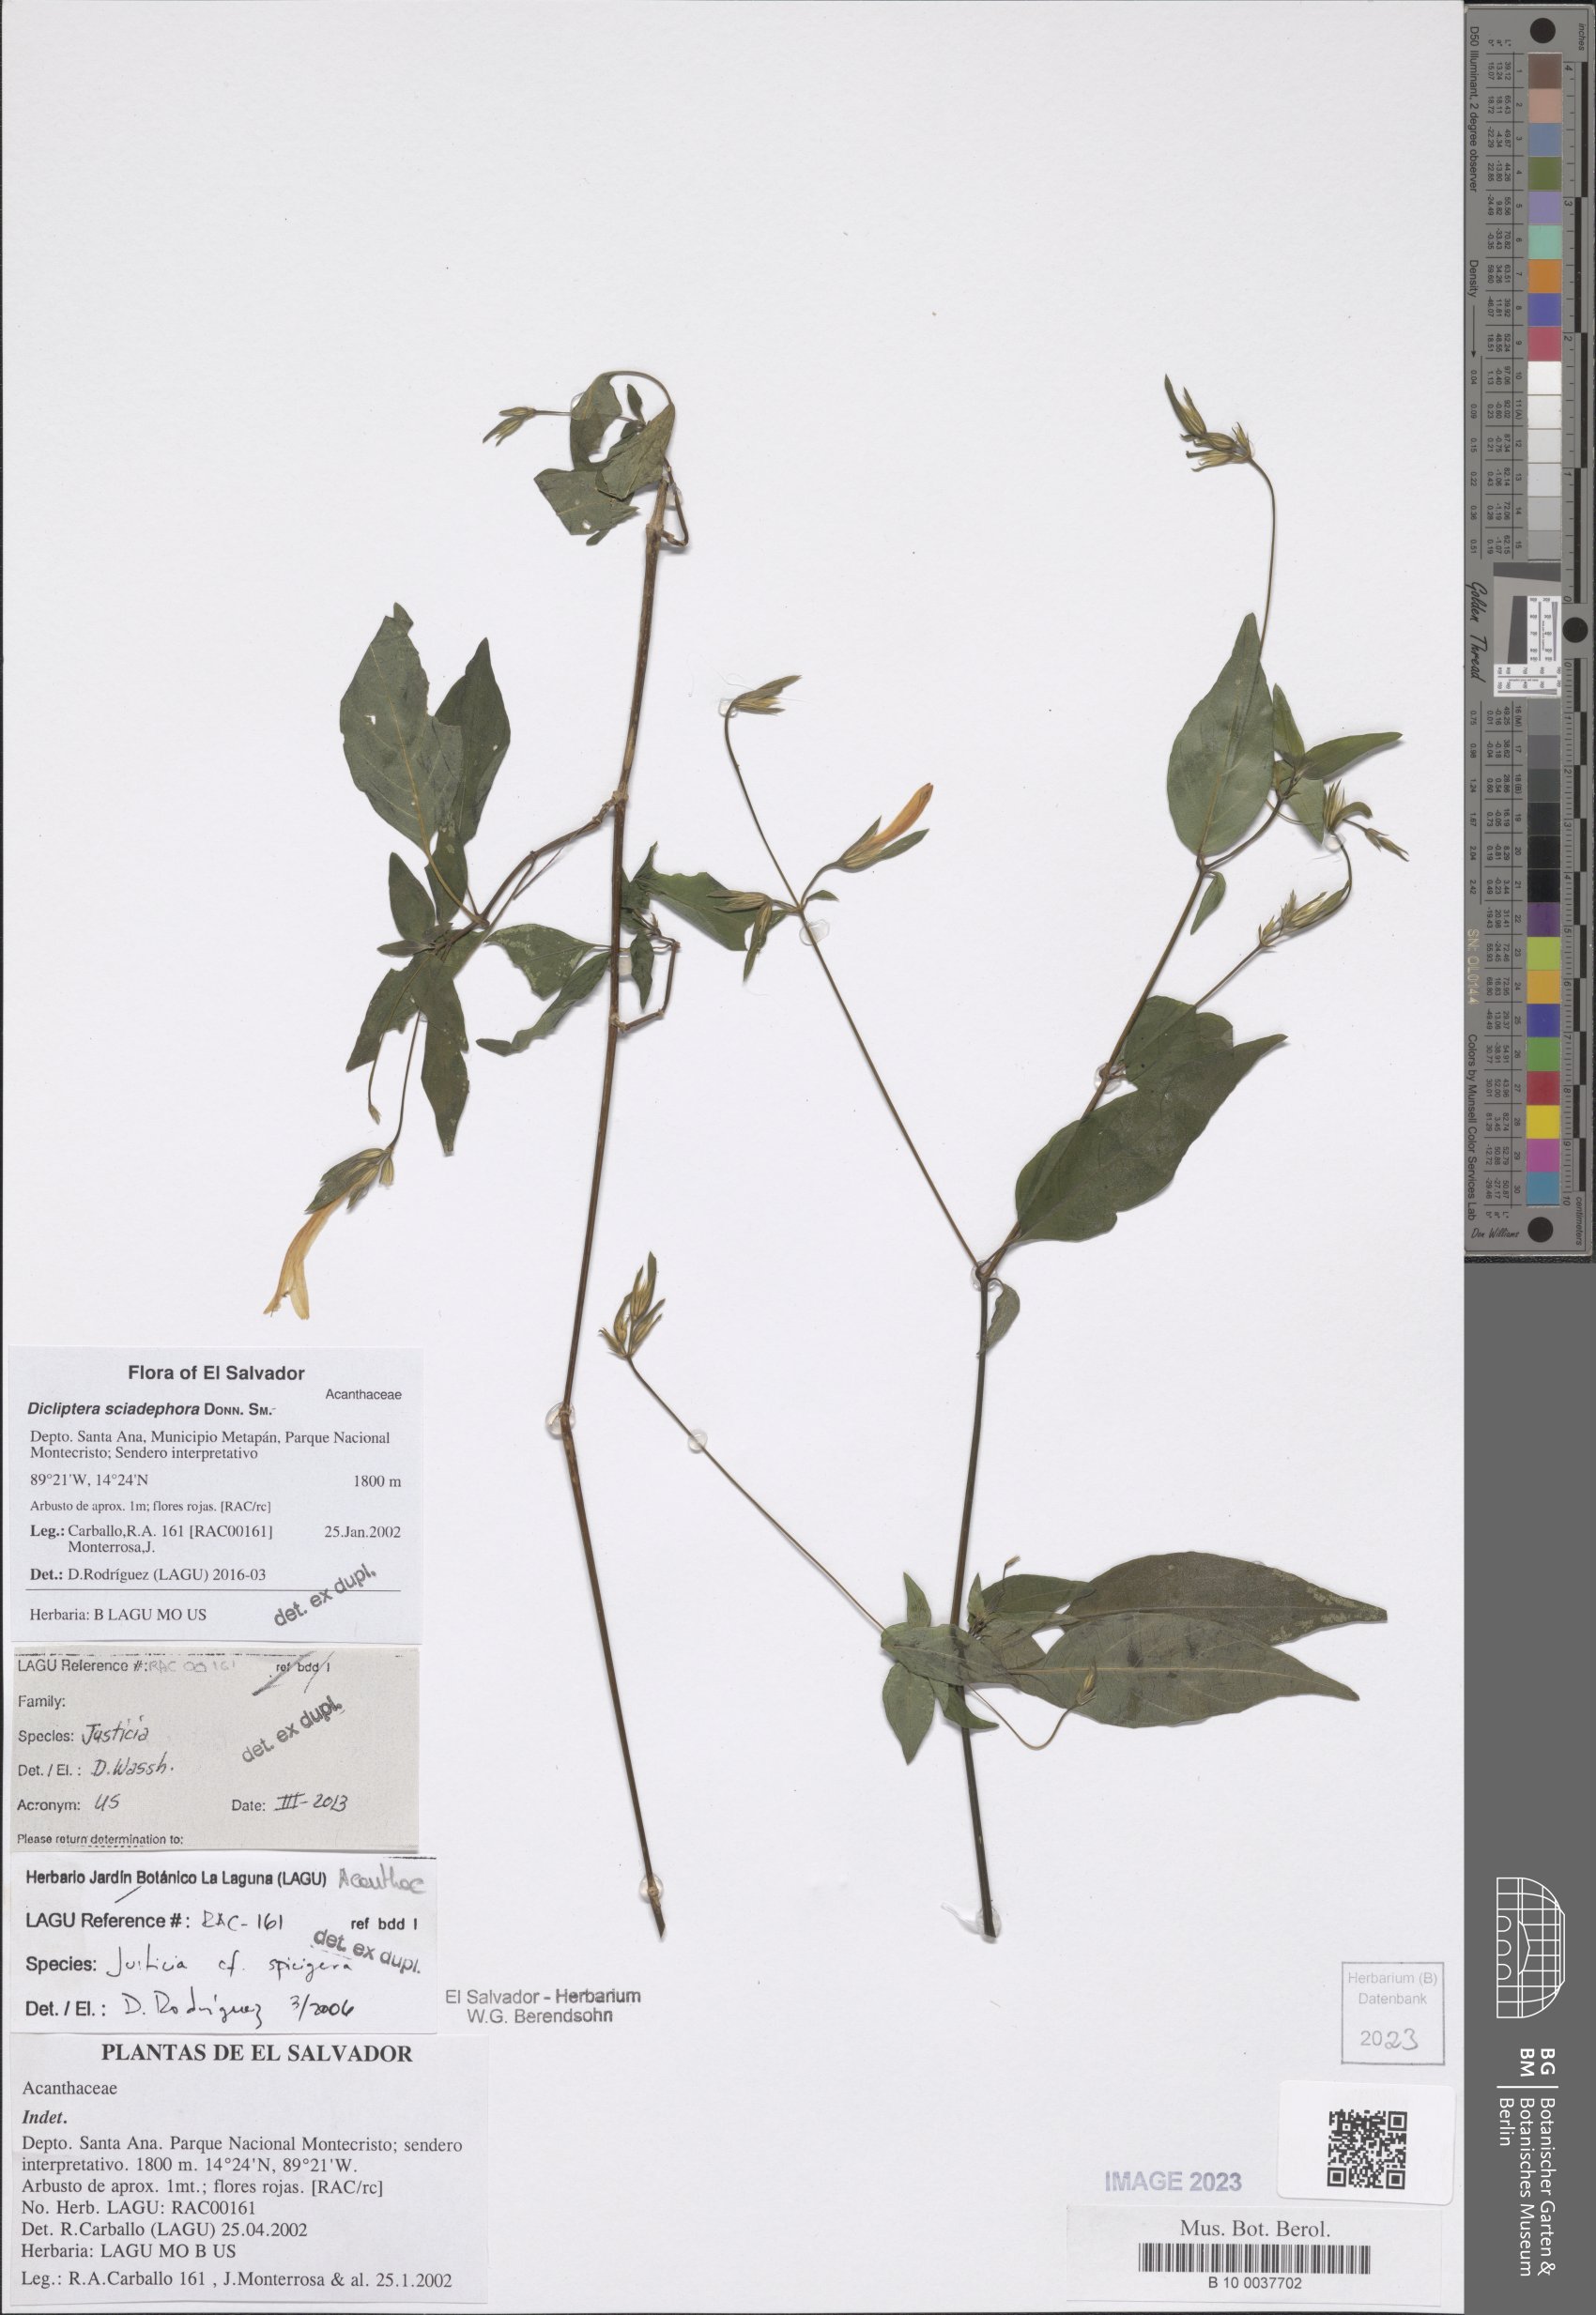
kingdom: Plantae
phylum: Tracheophyta
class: Magnoliopsida
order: Lamiales
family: Acanthaceae
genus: Dicliptera
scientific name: Dicliptera sciadephora
